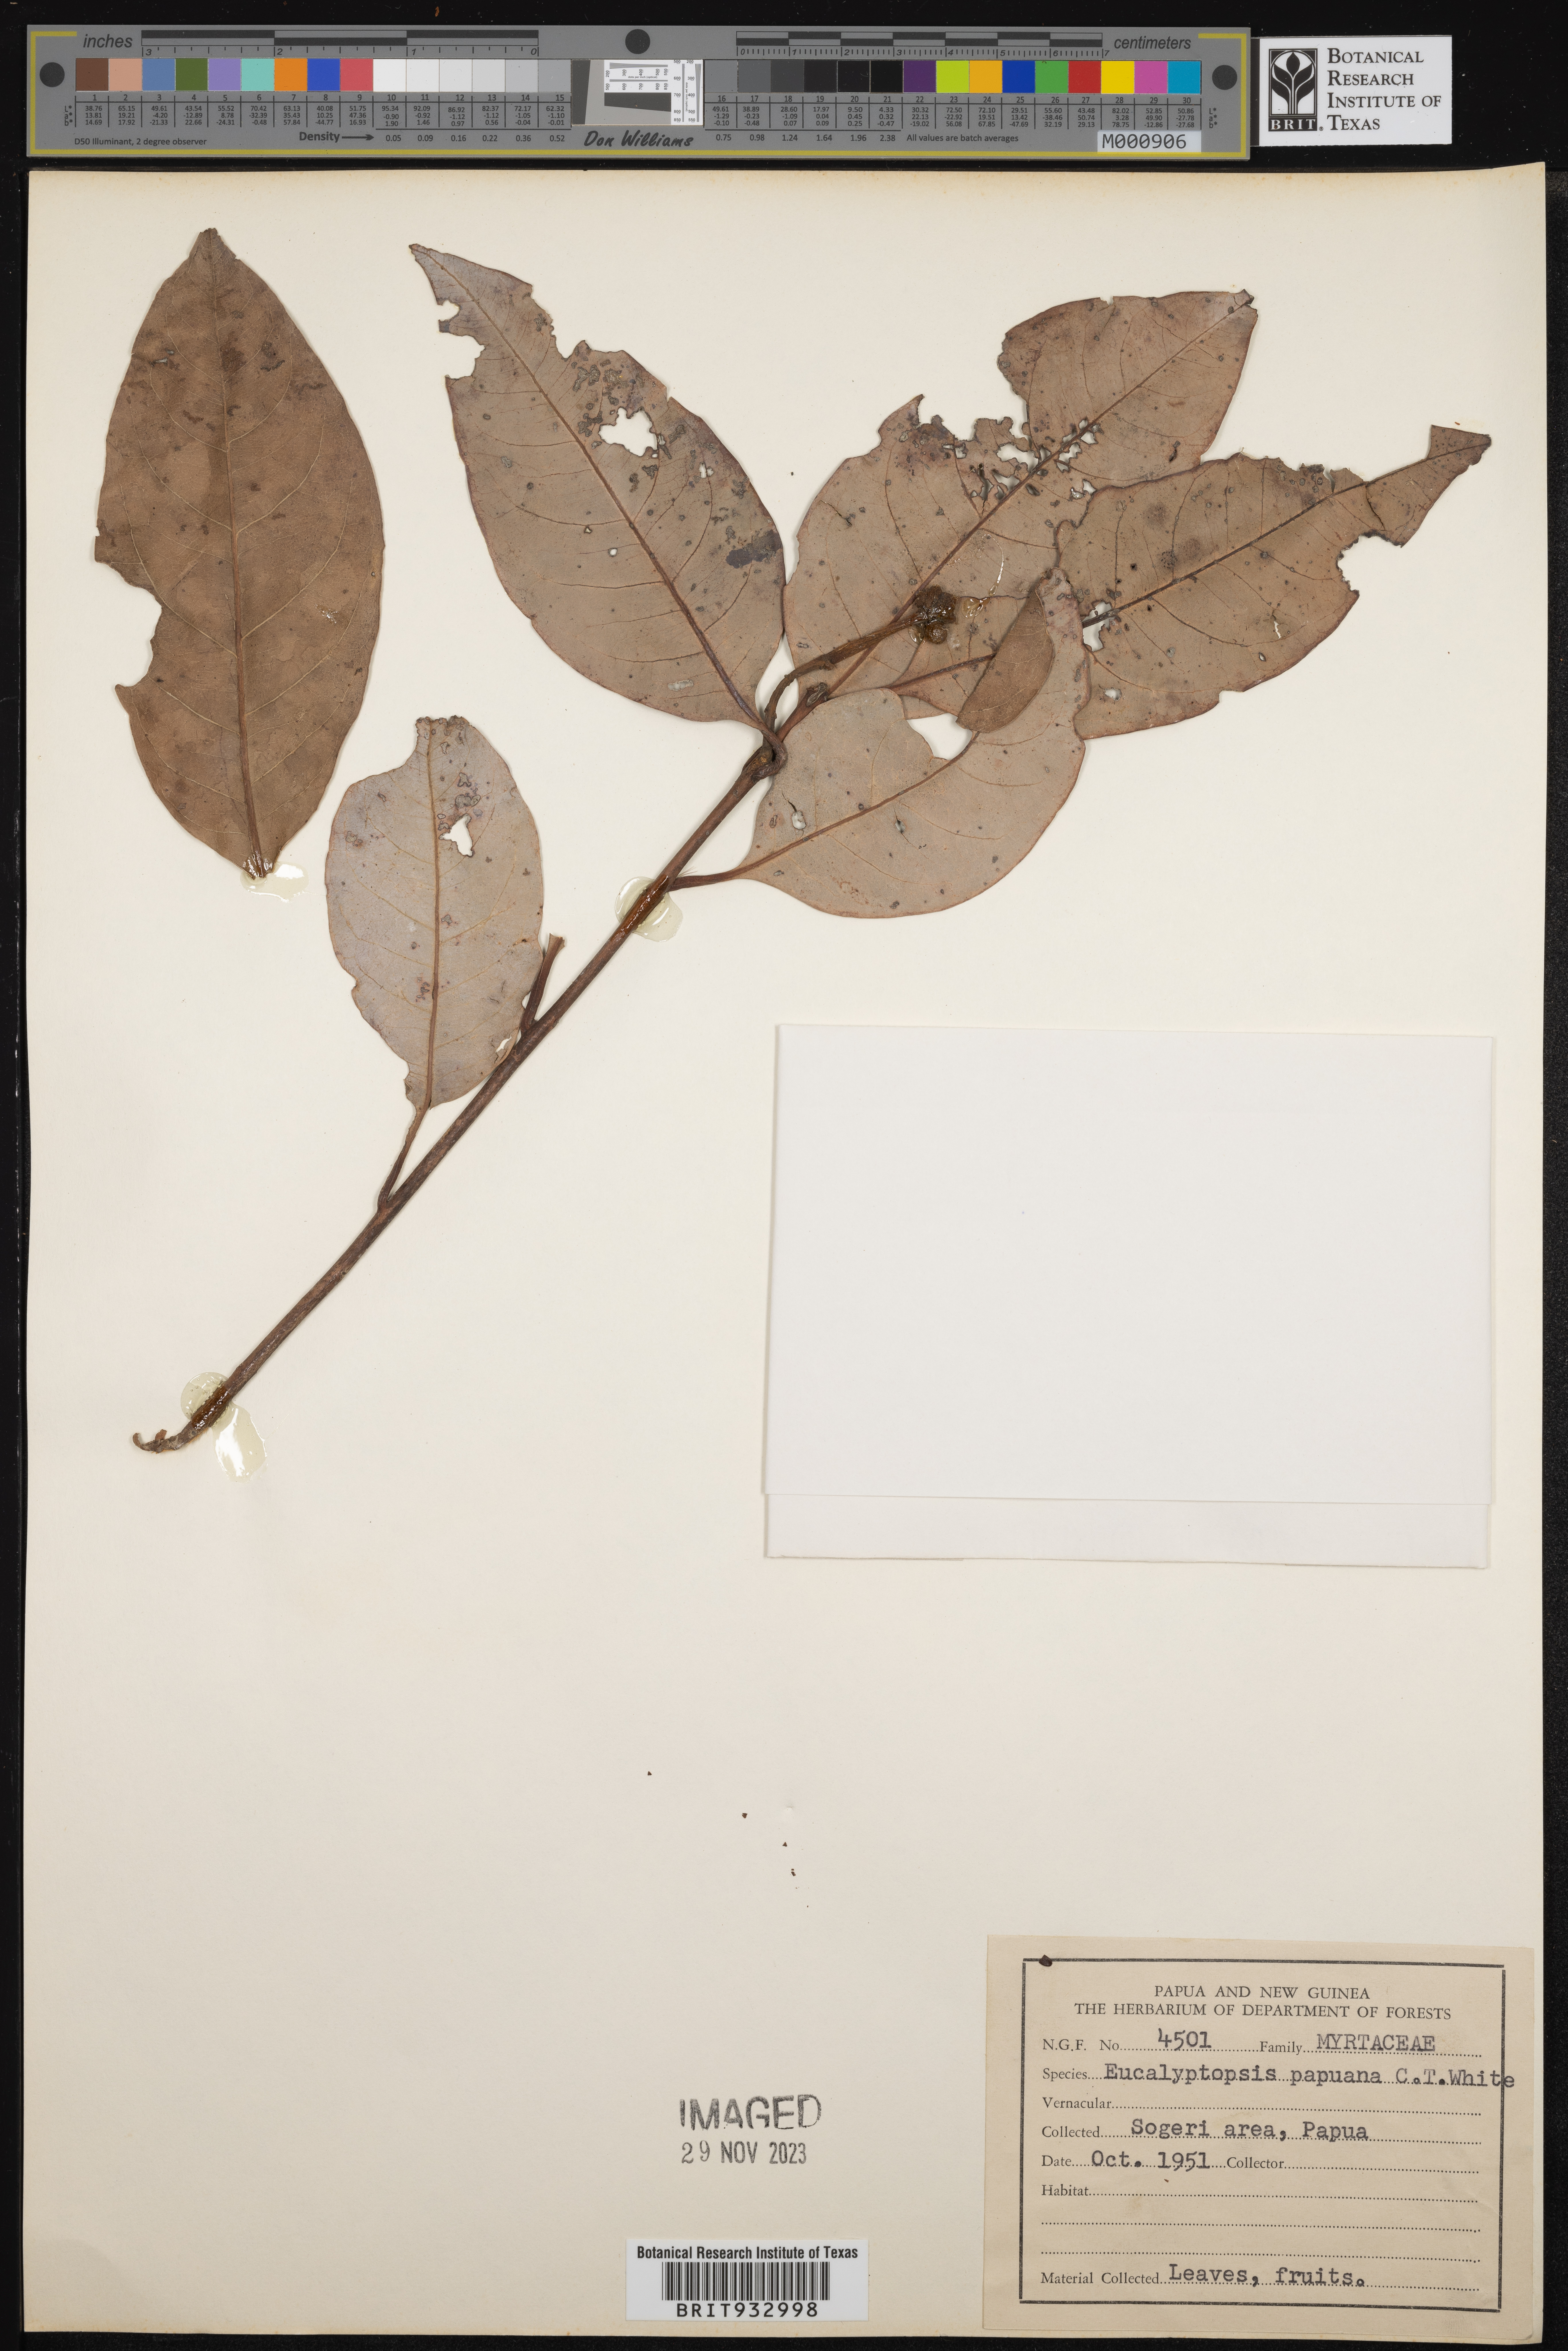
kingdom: Plantae
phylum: Tracheophyta
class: Magnoliopsida
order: Myrtales
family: Myrtaceae
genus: Eucalyptus
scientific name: Eucalyptus
